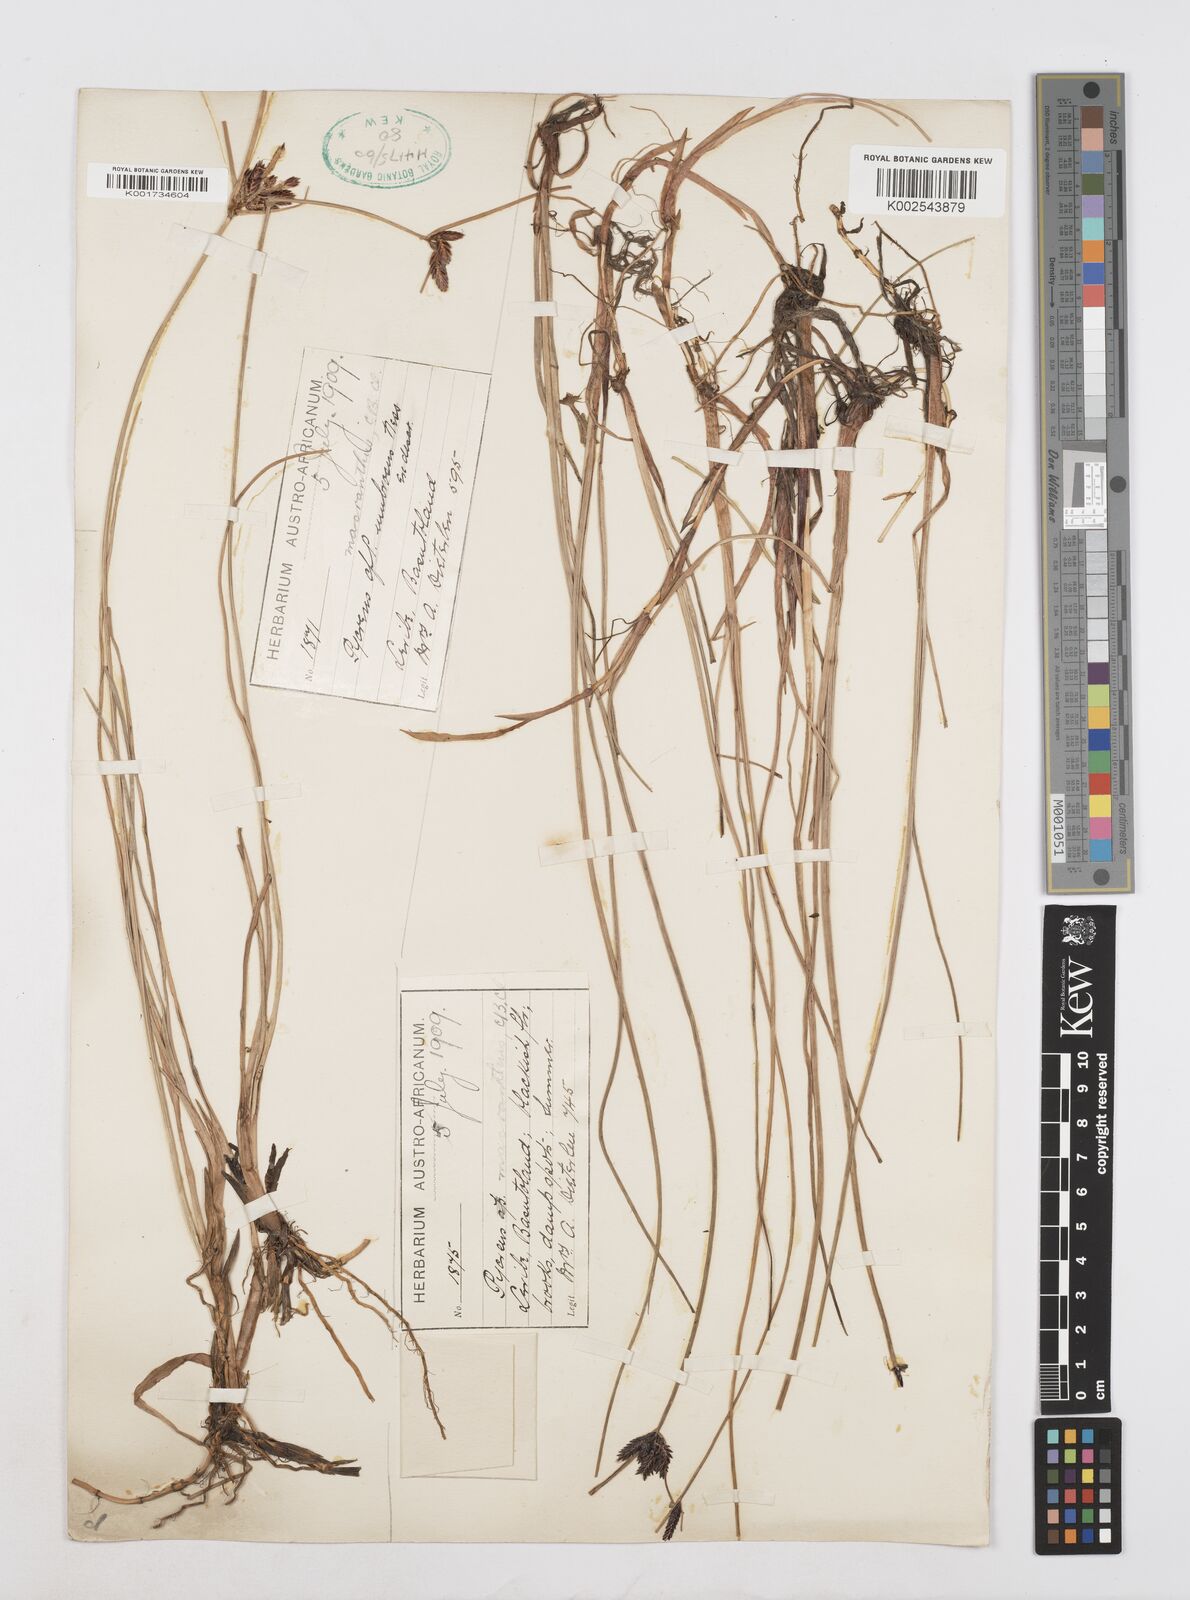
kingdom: Plantae
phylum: Tracheophyta
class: Liliopsida
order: Poales
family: Cyperaceae
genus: Cyperus
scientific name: Cyperus nigricans
